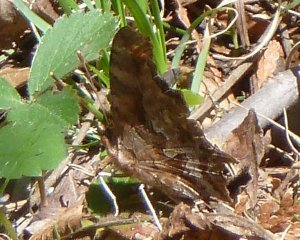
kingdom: Animalia
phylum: Arthropoda
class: Insecta
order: Lepidoptera
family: Nymphalidae
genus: Polygonia
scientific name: Polygonia comma
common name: Eastern Comma
